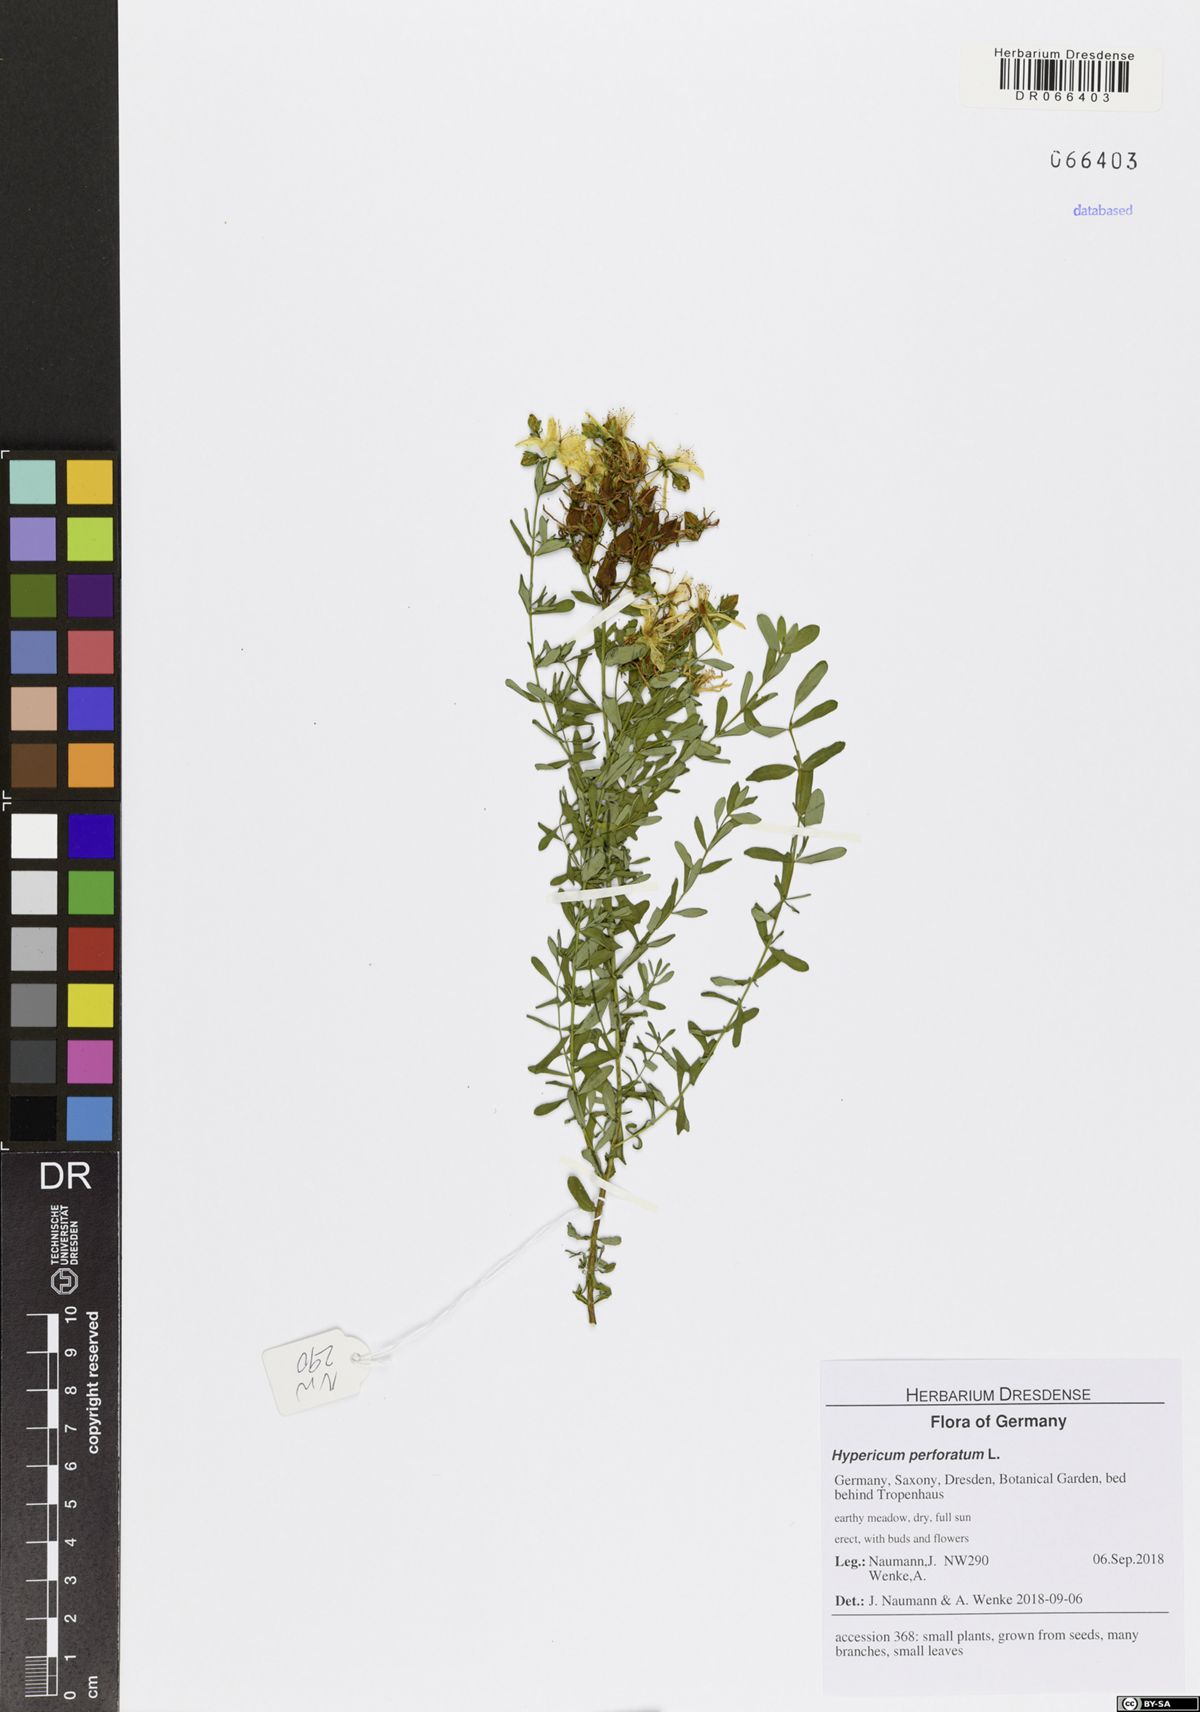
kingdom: Plantae
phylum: Tracheophyta
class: Magnoliopsida
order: Malpighiales
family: Hypericaceae
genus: Hypericum
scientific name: Hypericum perforatum
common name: Common st. johnswort
